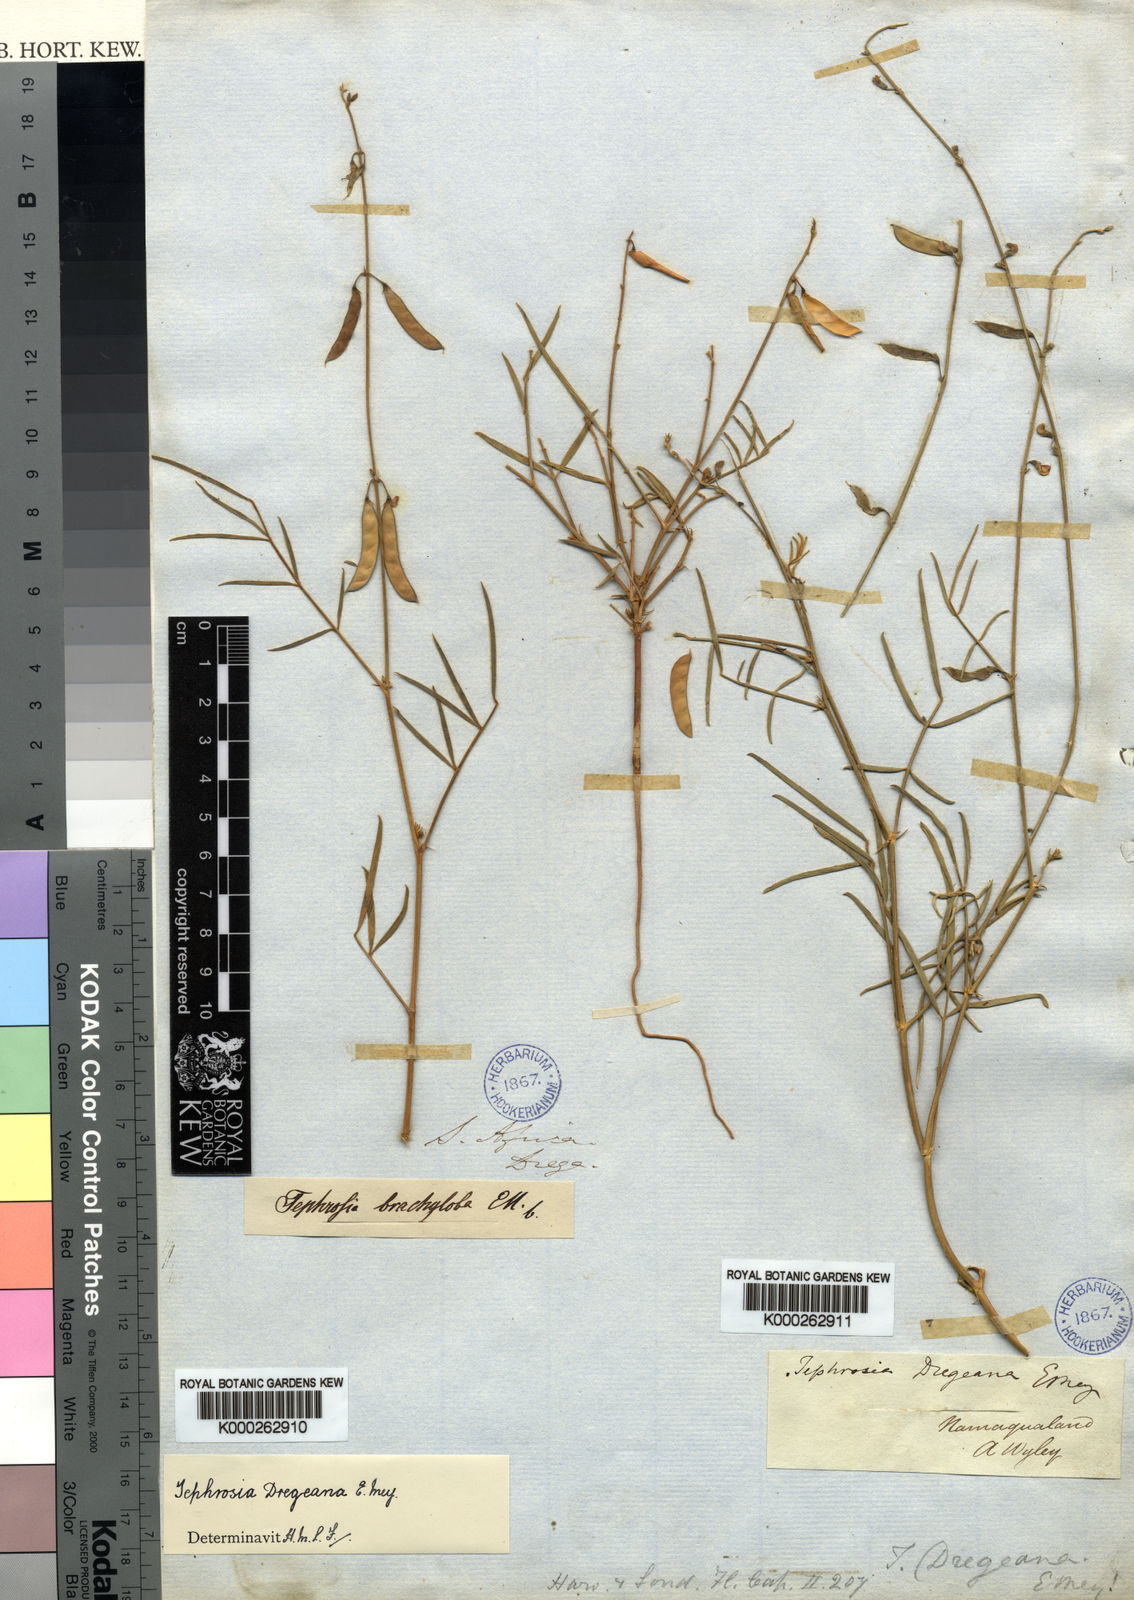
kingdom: Plantae
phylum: Tracheophyta
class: Magnoliopsida
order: Fabales
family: Fabaceae
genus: Tephrosia
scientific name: Tephrosia dregeana
